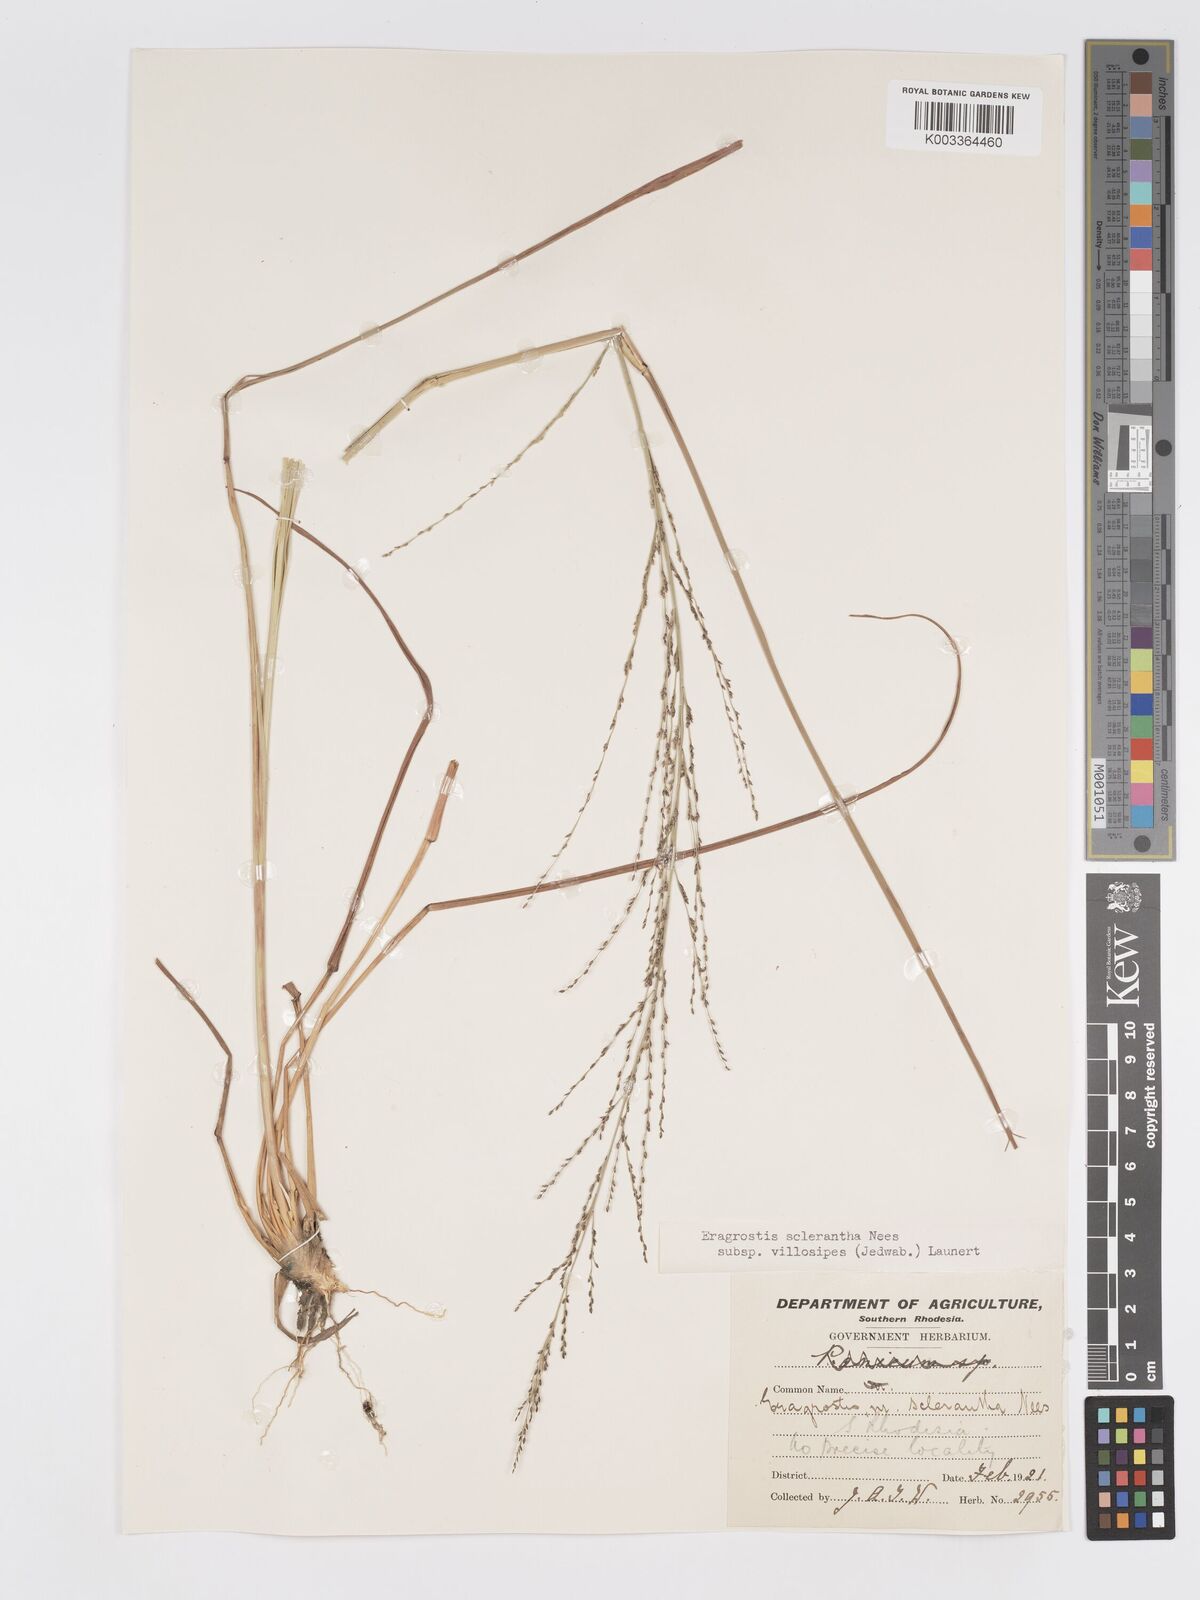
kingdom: Plantae
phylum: Tracheophyta
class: Liliopsida
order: Poales
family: Poaceae
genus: Eragrostis
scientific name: Eragrostis sclerantha
